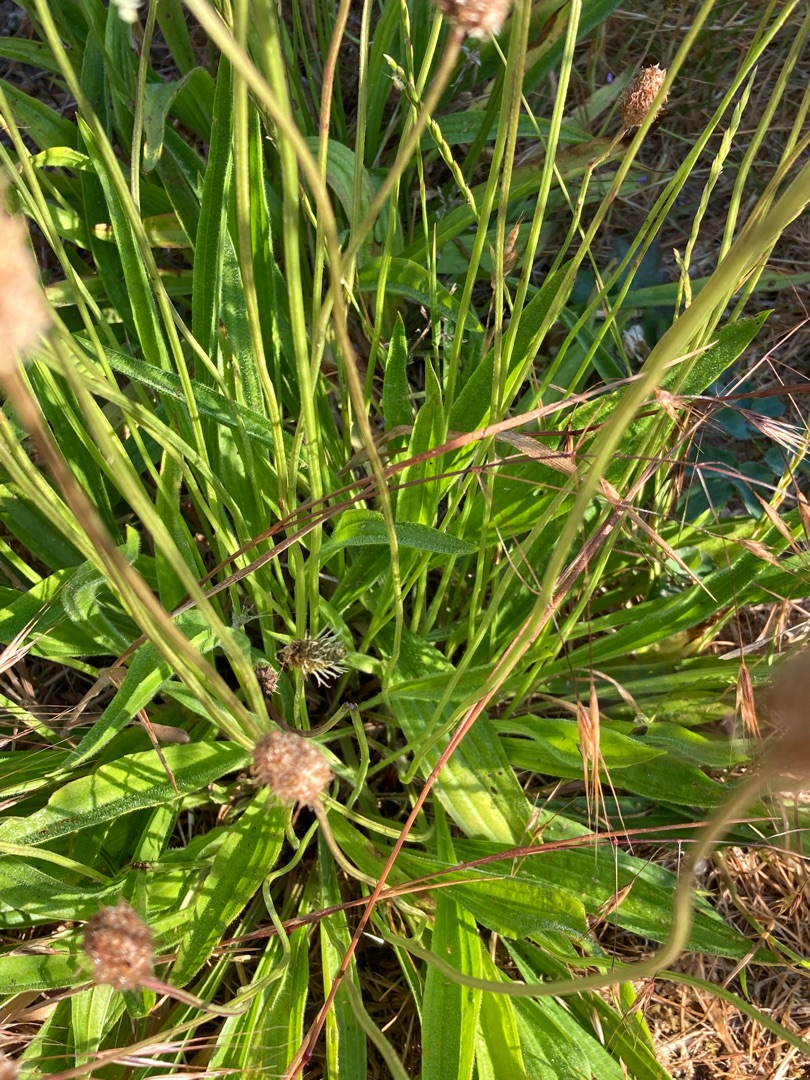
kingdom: Plantae
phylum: Tracheophyta
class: Magnoliopsida
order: Lamiales
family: Plantaginaceae
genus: Plantago
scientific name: Plantago lanceolata
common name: Lancet-vejbred
